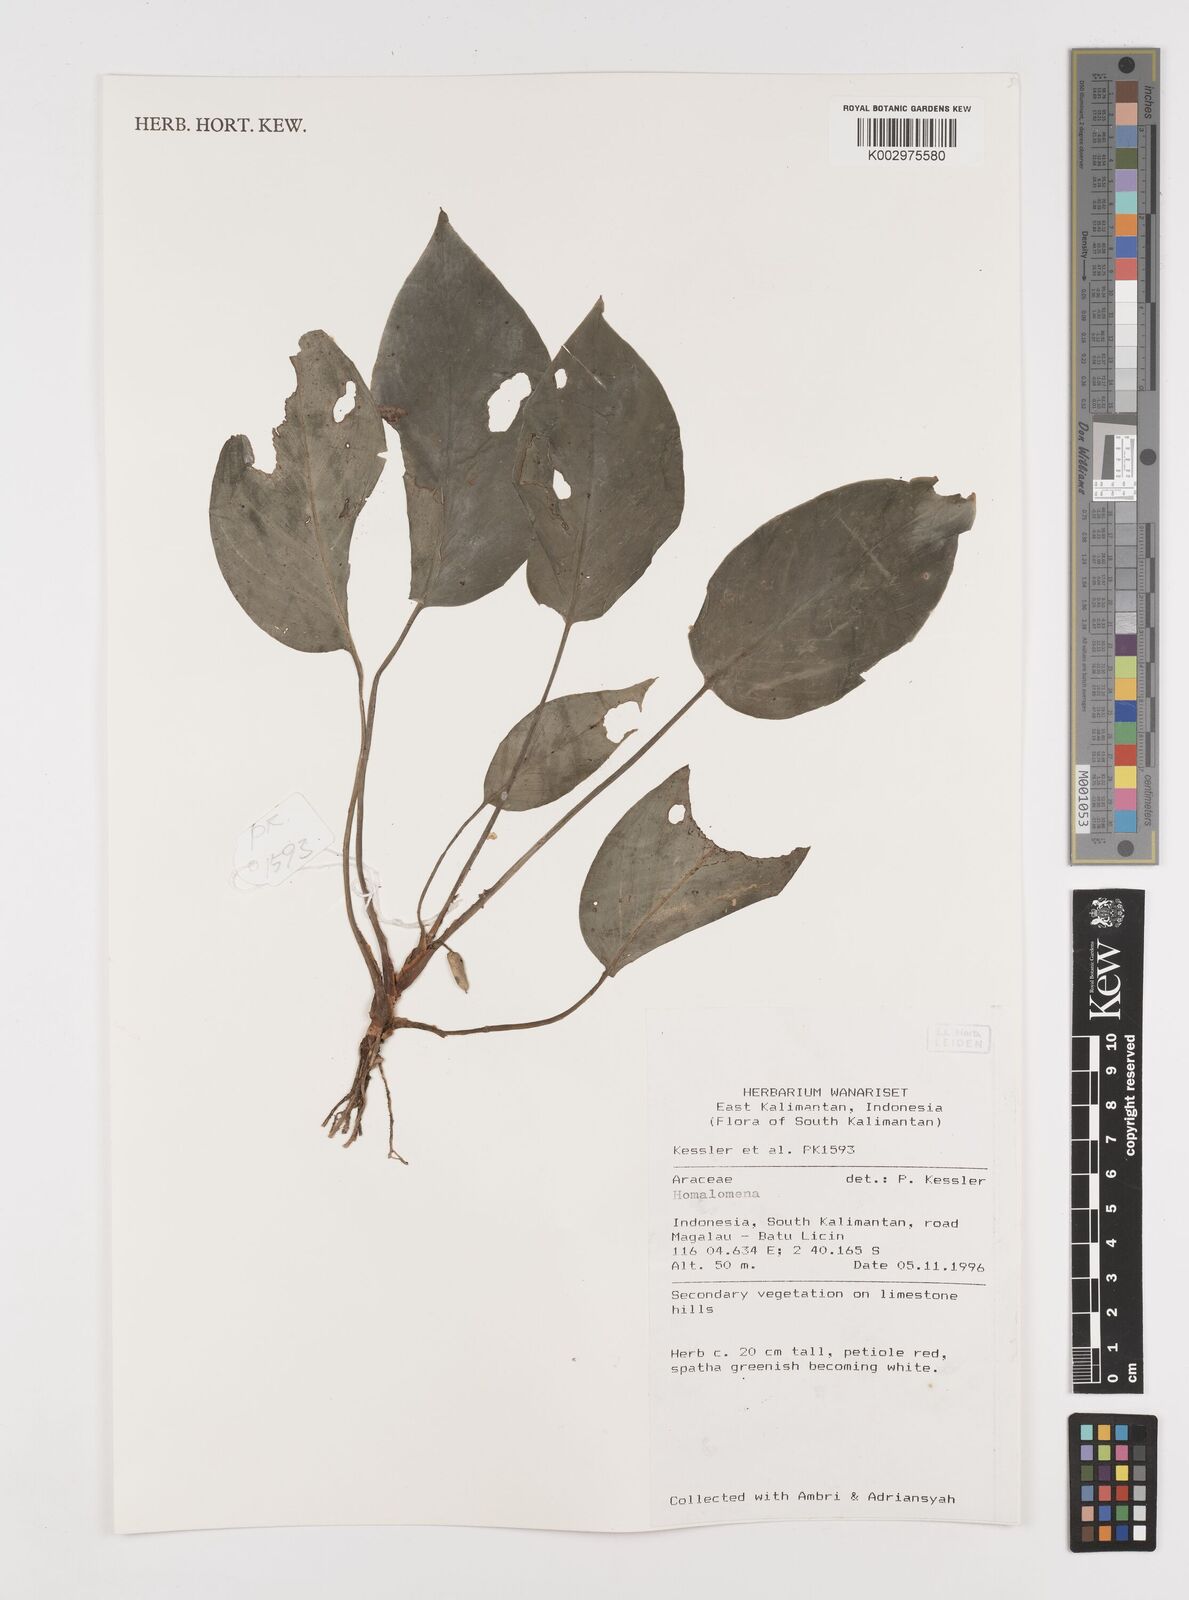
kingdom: Plantae
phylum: Tracheophyta
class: Liliopsida
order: Alismatales
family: Araceae
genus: Homalomena
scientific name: Homalomena
